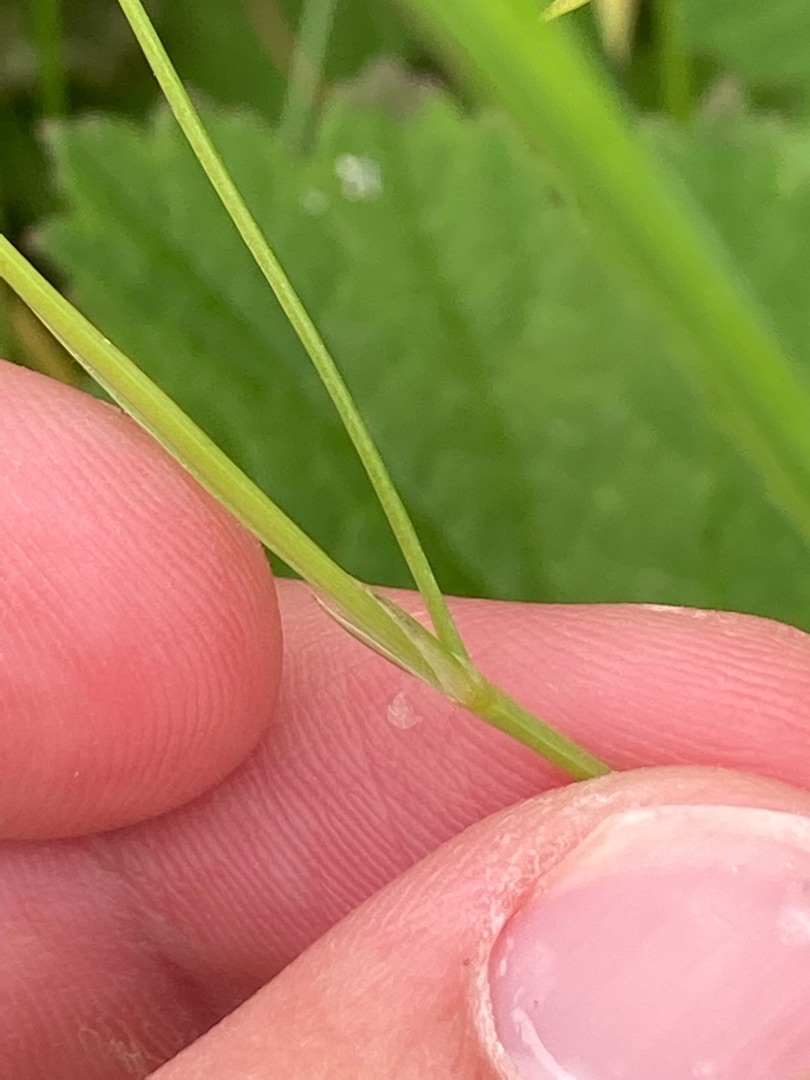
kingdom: Plantae
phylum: Tracheophyta
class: Magnoliopsida
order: Caryophyllales
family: Caryophyllaceae
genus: Stellaria
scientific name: Stellaria palustris
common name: Kær-fladstjerne
